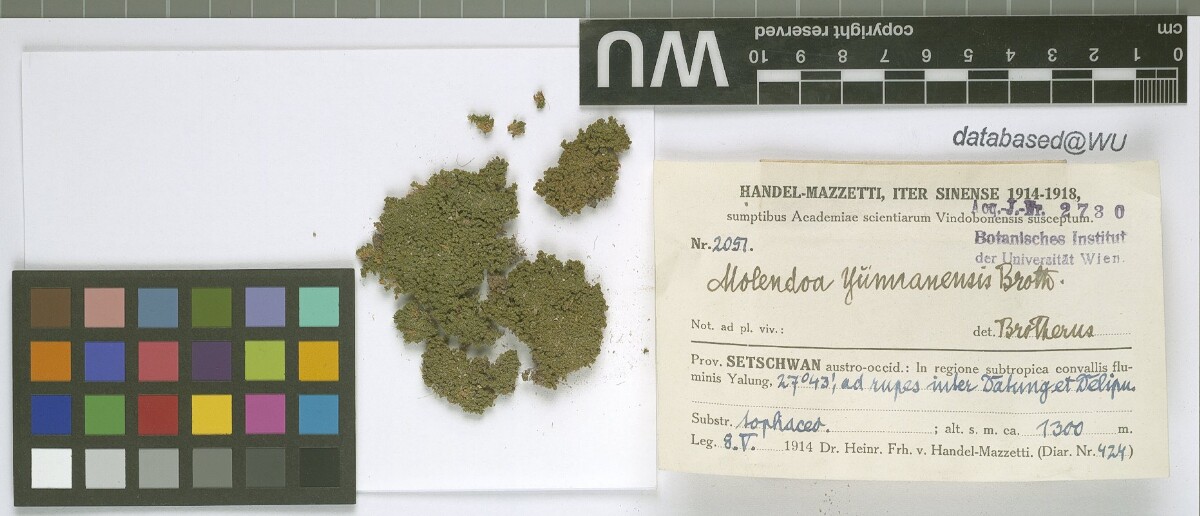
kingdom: Plantae
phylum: Bryophyta
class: Bryopsida
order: Pottiales
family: Pottiaceae
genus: Molendoa
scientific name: Molendoa sendtneriana
